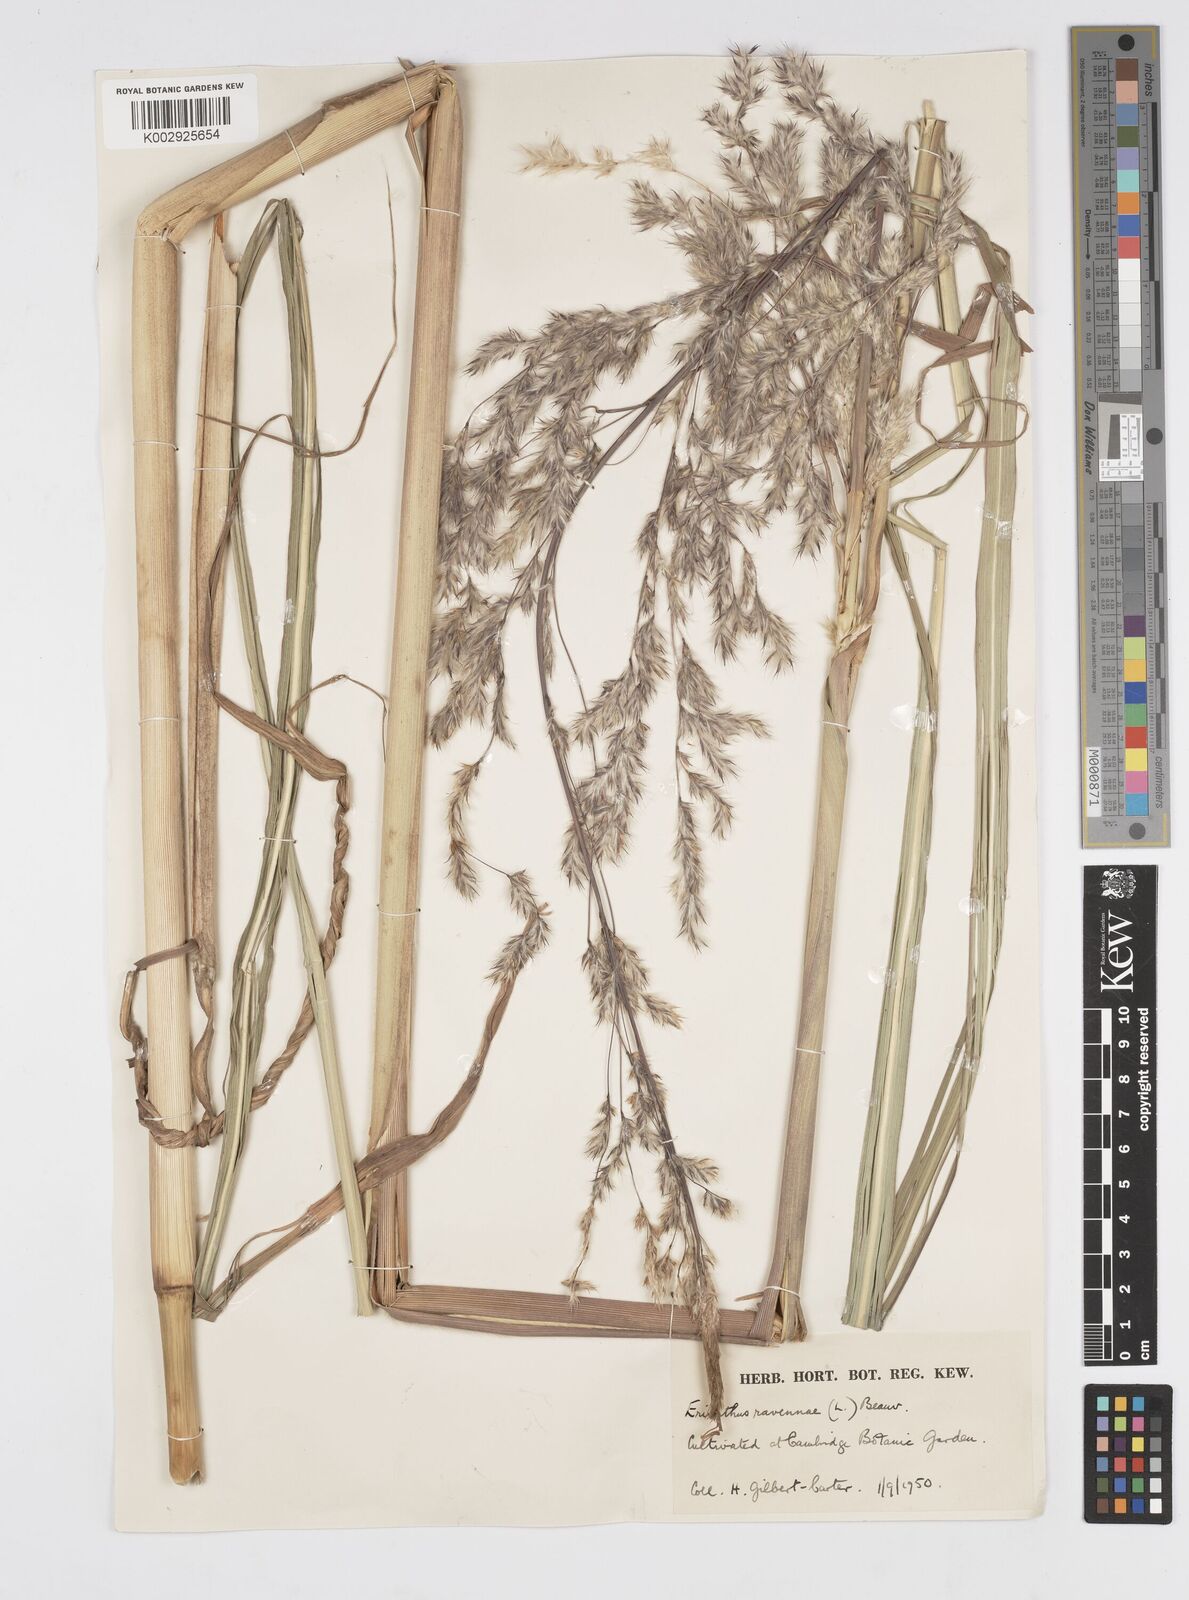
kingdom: Plantae
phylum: Tracheophyta
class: Liliopsida
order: Poales
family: Poaceae
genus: Tripidium
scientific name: Tripidium ravennae
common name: Ravenna grass
